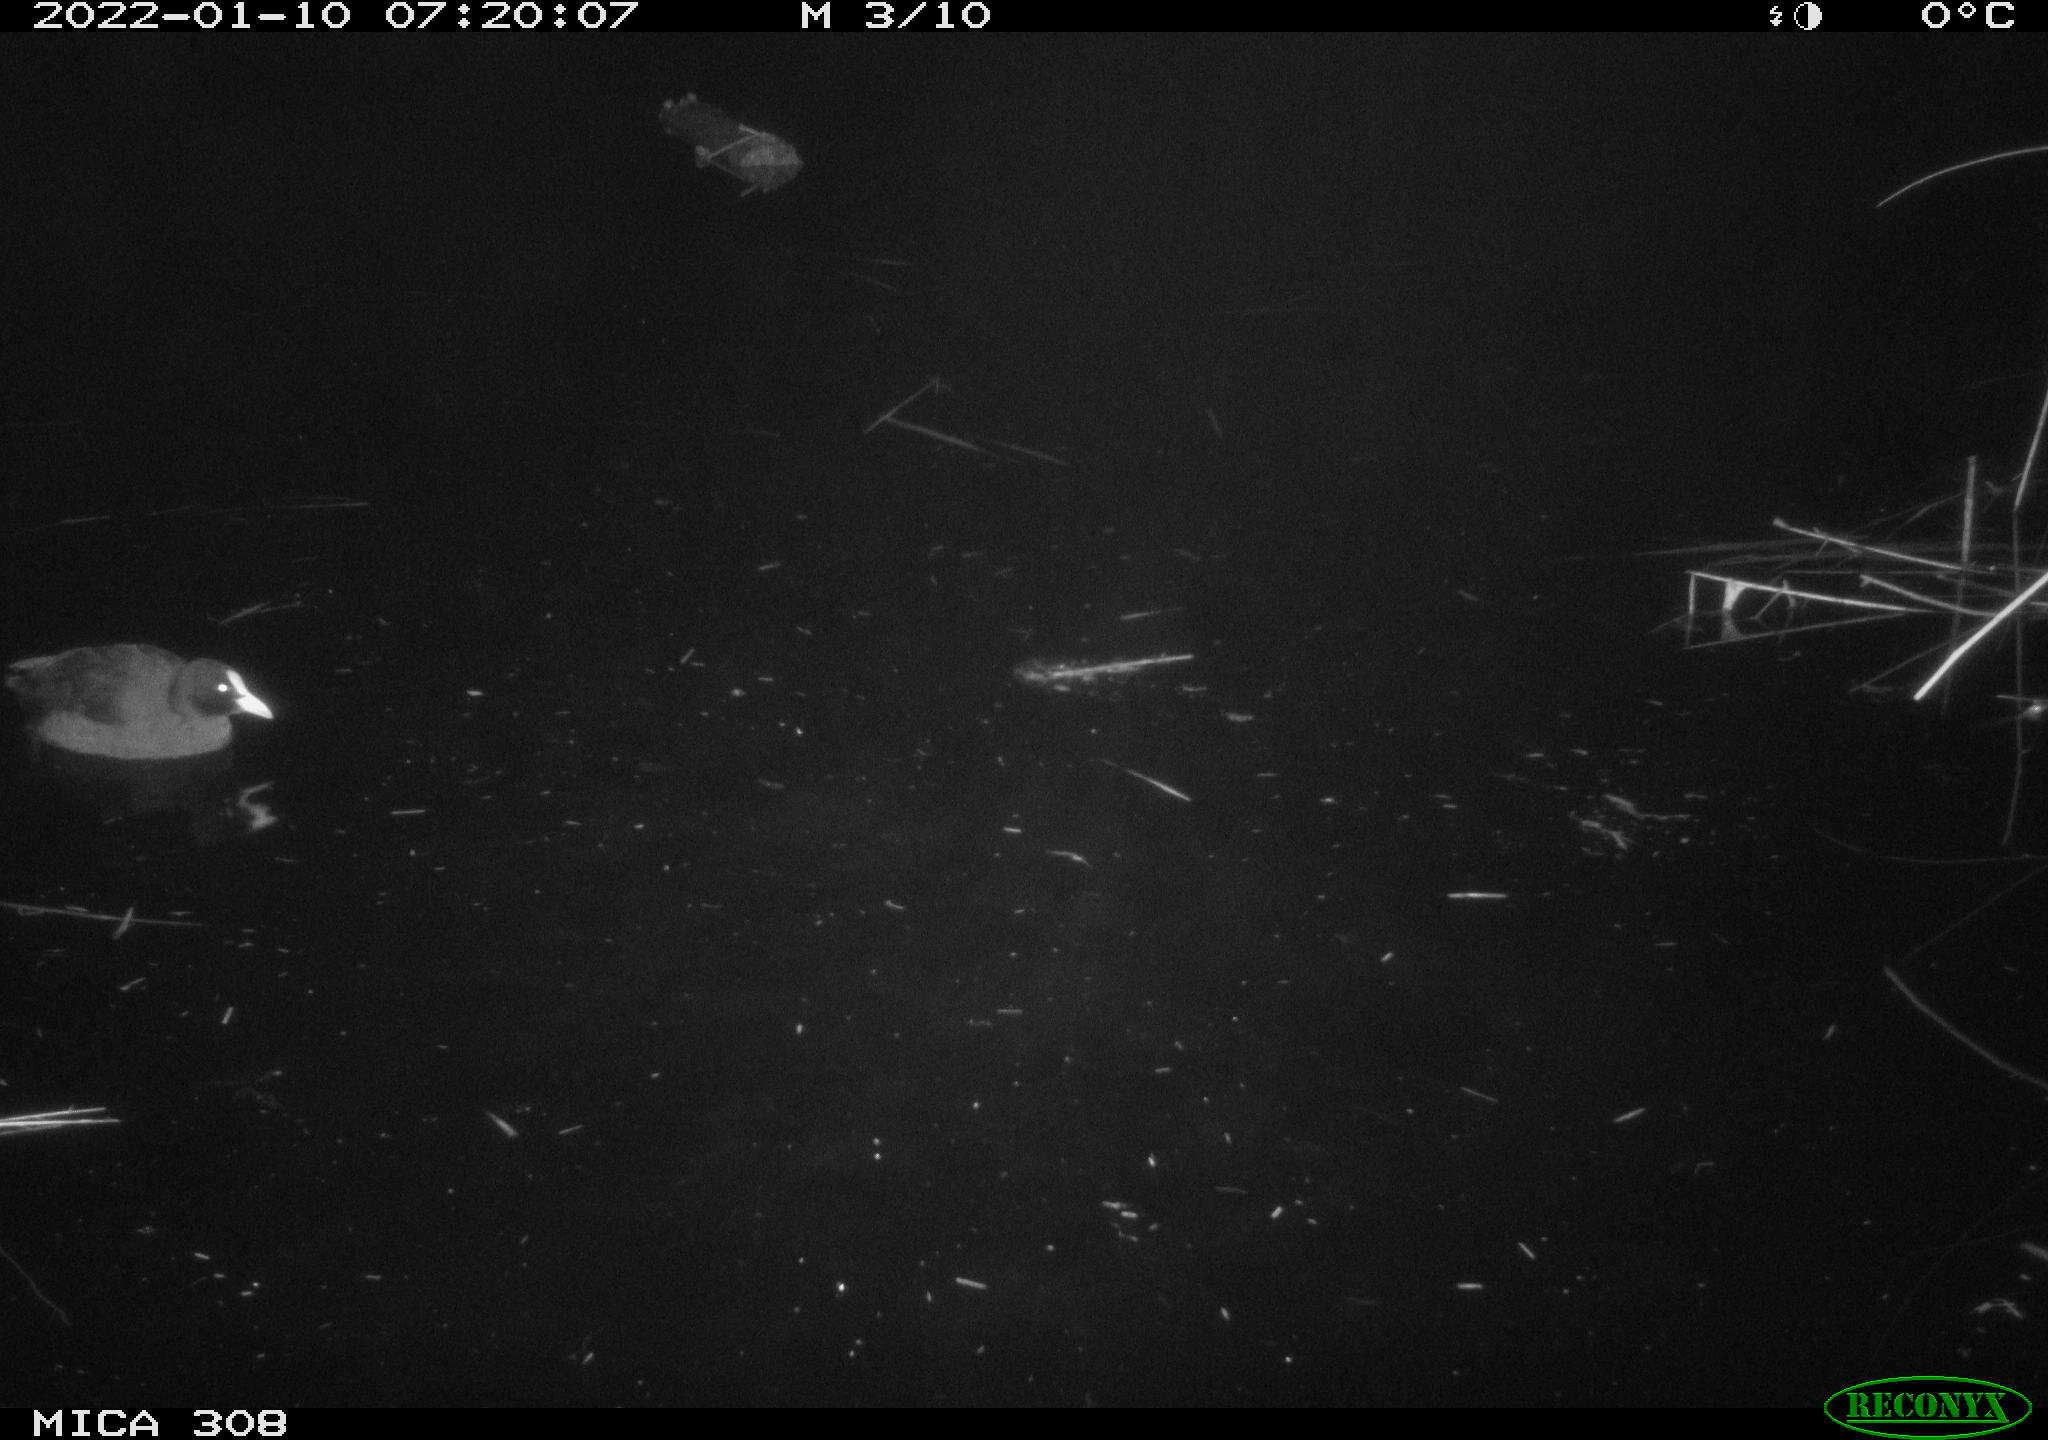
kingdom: Animalia
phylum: Chordata
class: Aves
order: Gruiformes
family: Rallidae
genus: Fulica
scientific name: Fulica atra
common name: Eurasian coot
